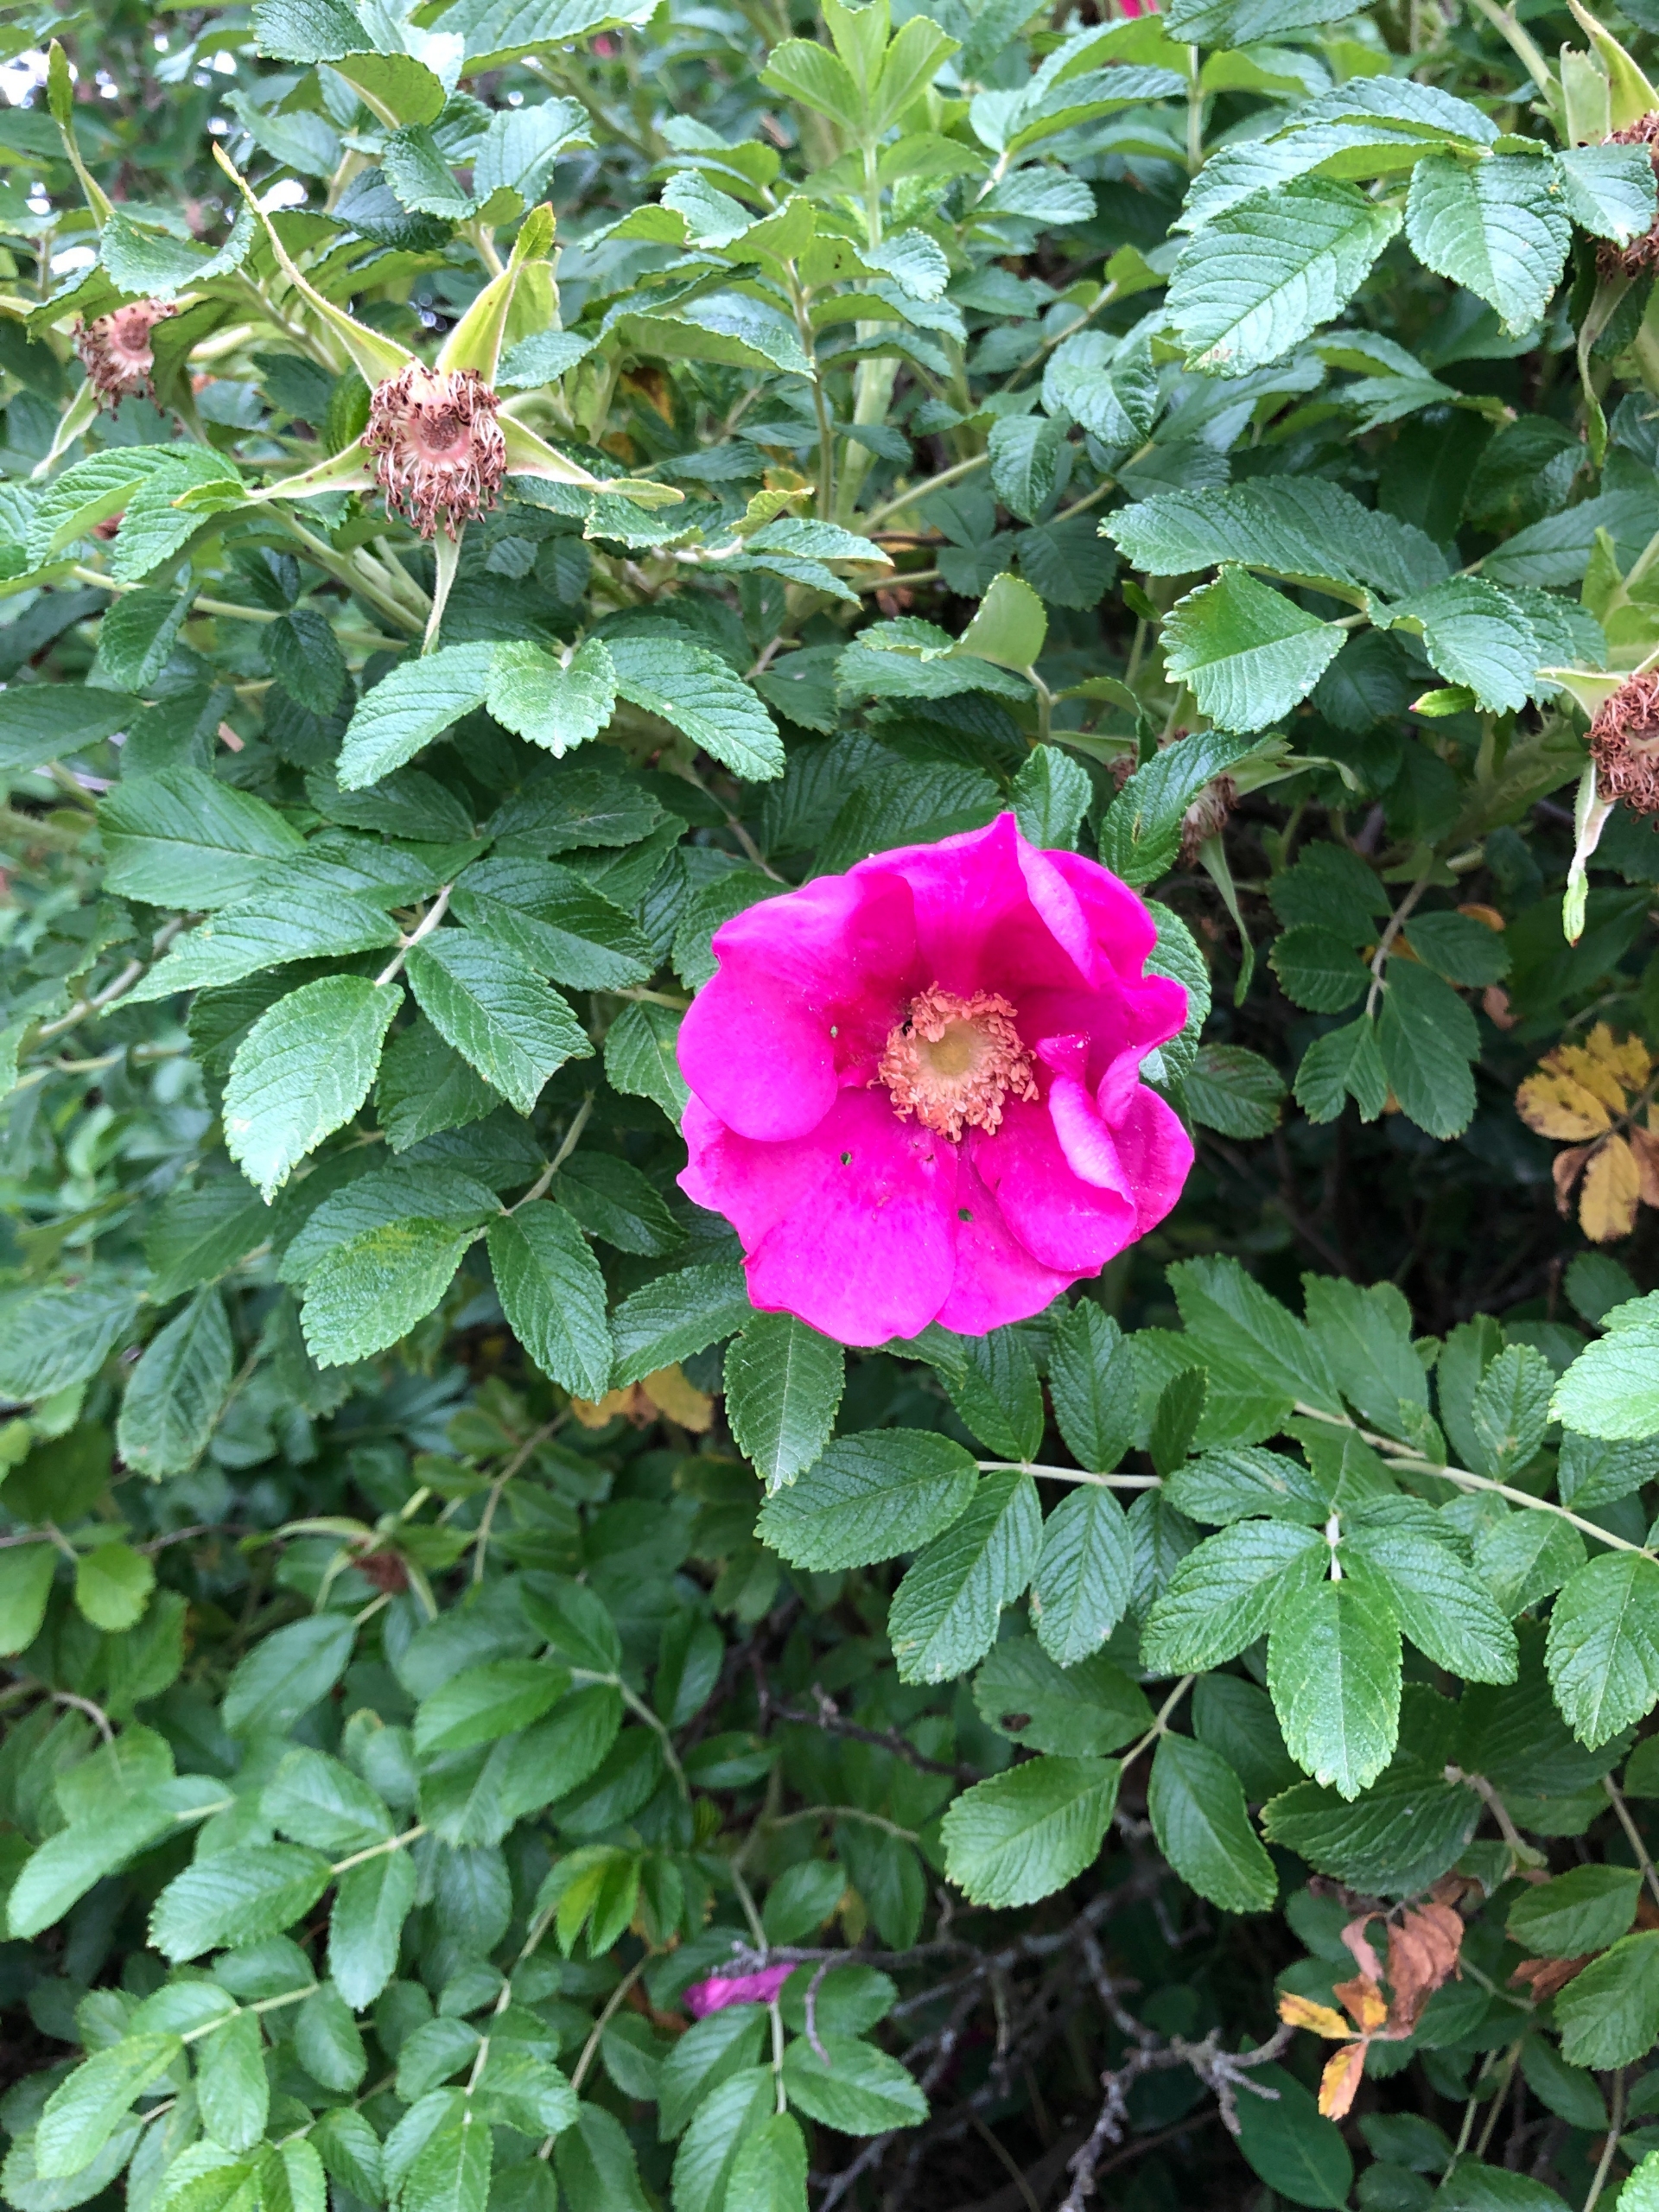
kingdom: Plantae
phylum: Tracheophyta
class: Magnoliopsida
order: Rosales
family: Rosaceae
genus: Rosa
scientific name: Rosa rugosa
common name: Rynket rose
